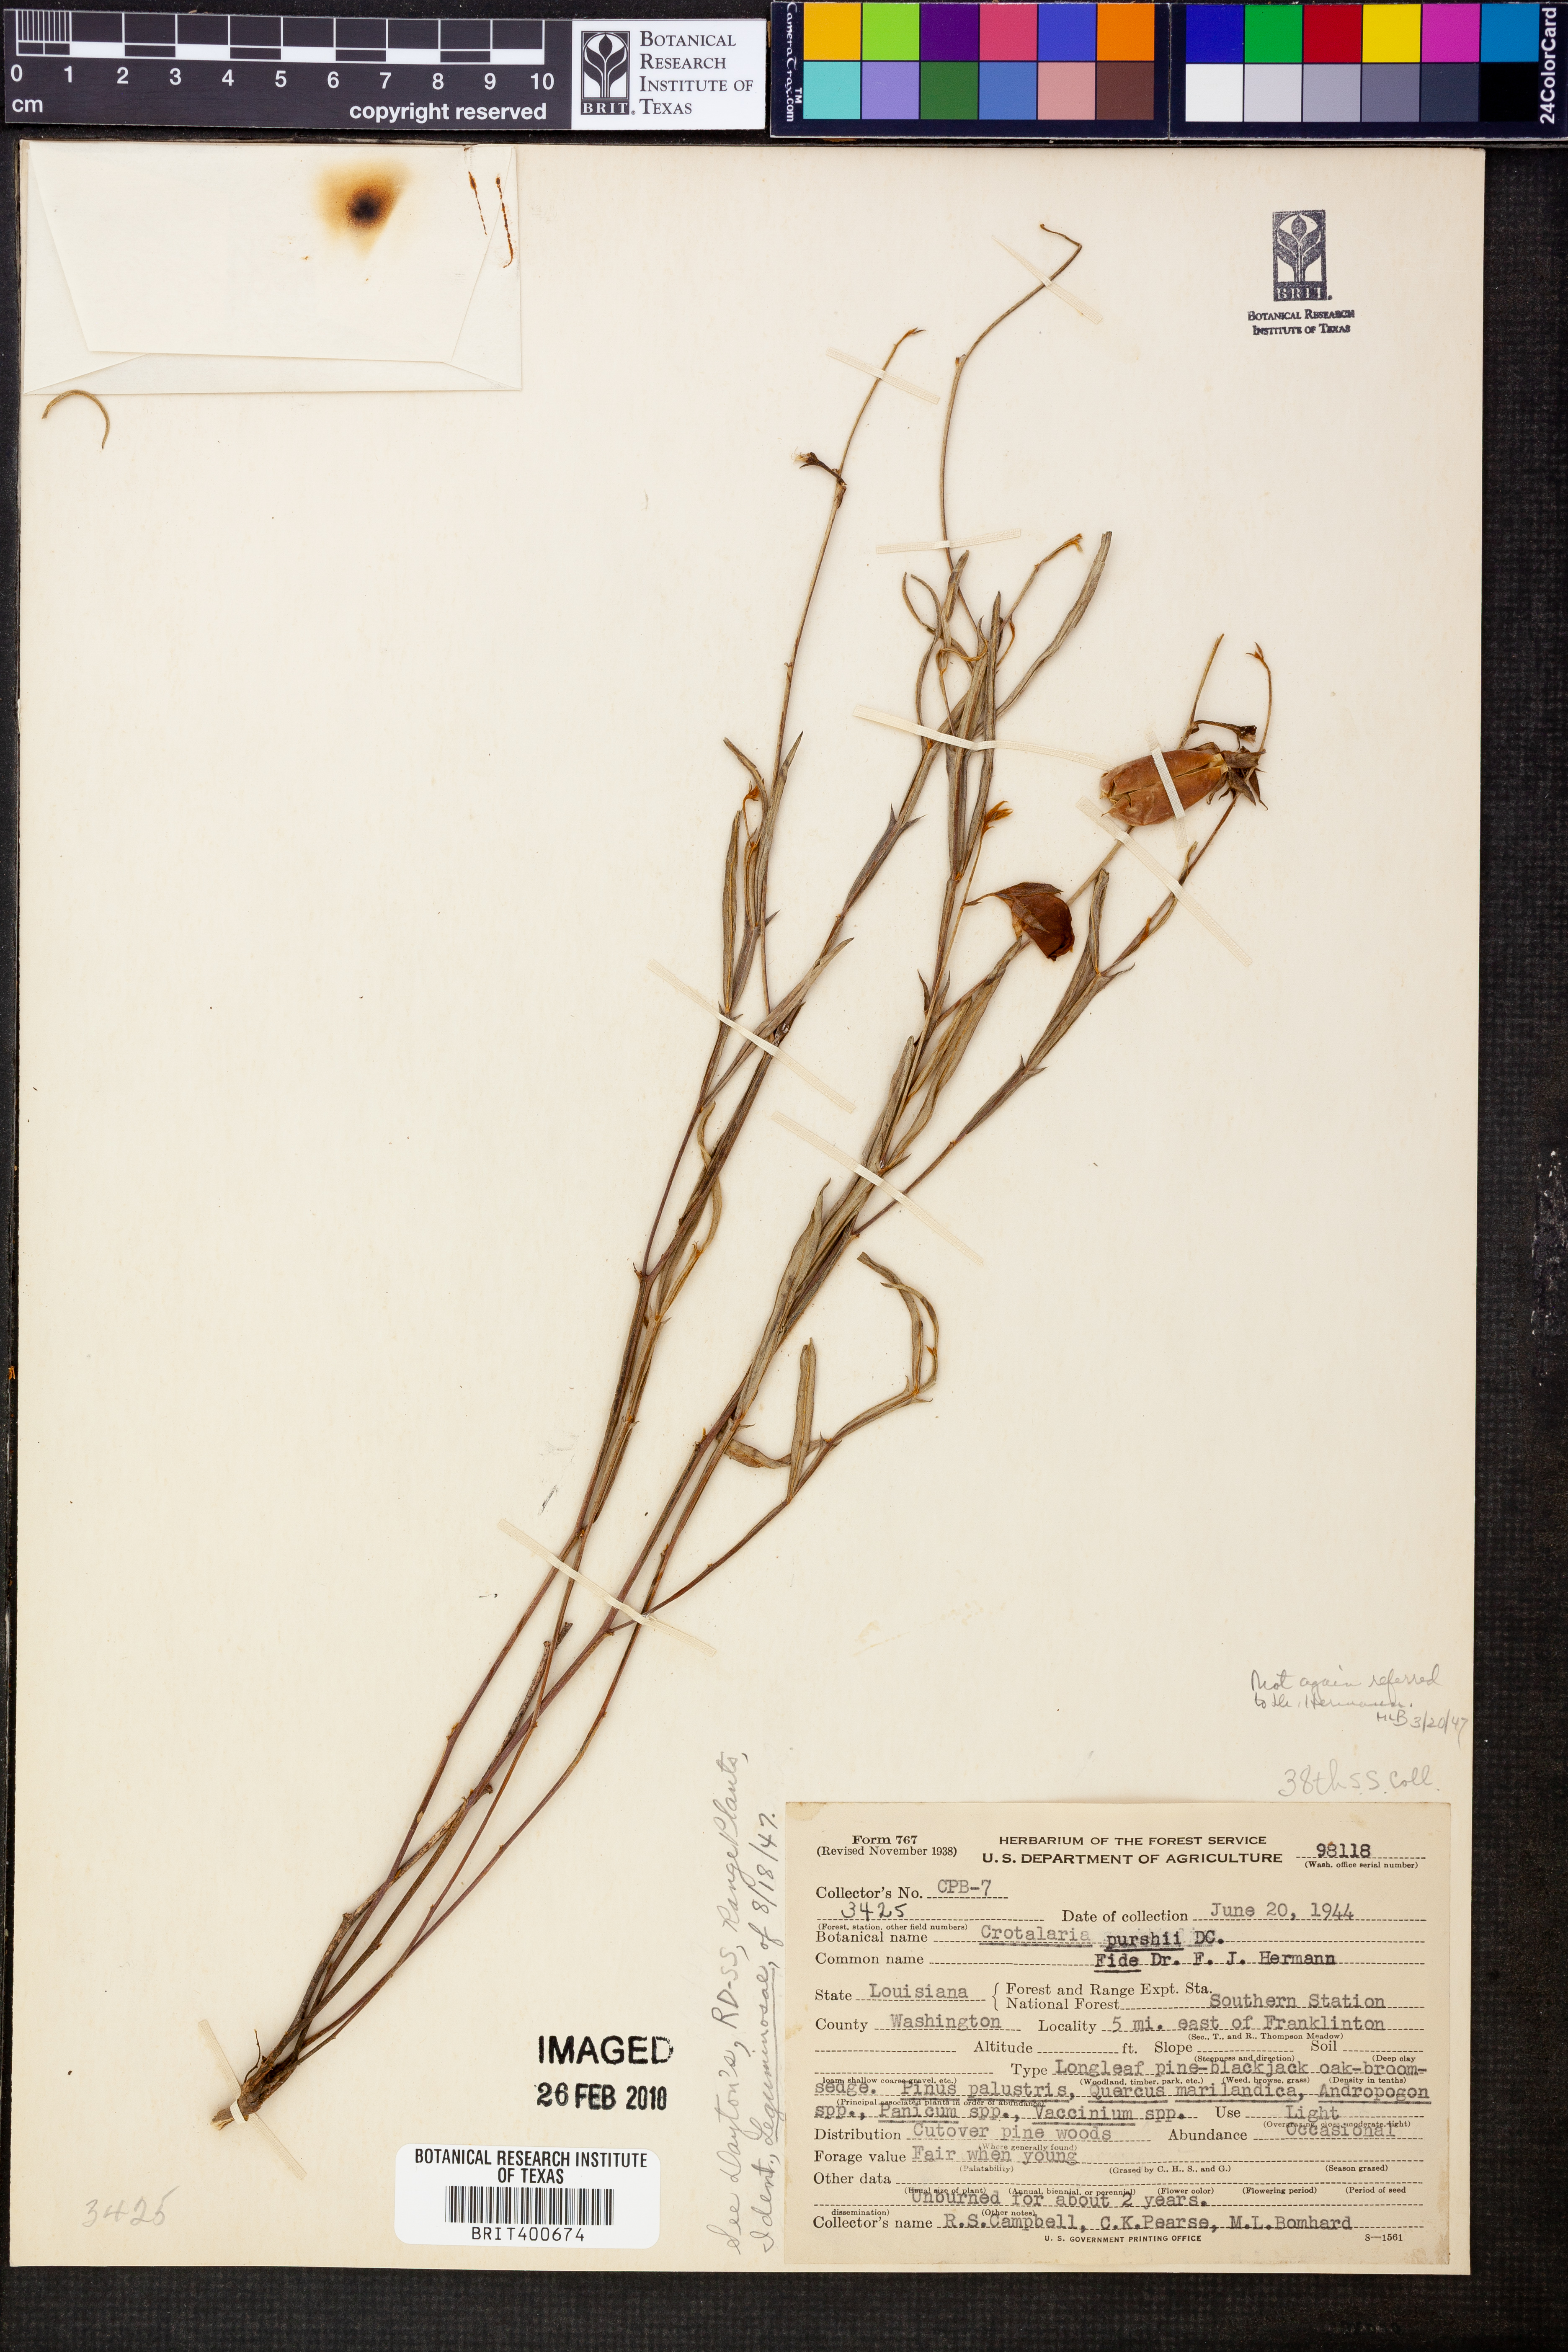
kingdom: Plantae
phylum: Tracheophyta
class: Magnoliopsida
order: Fabales
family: Fabaceae
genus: Crotalaria
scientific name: Crotalaria purshii
